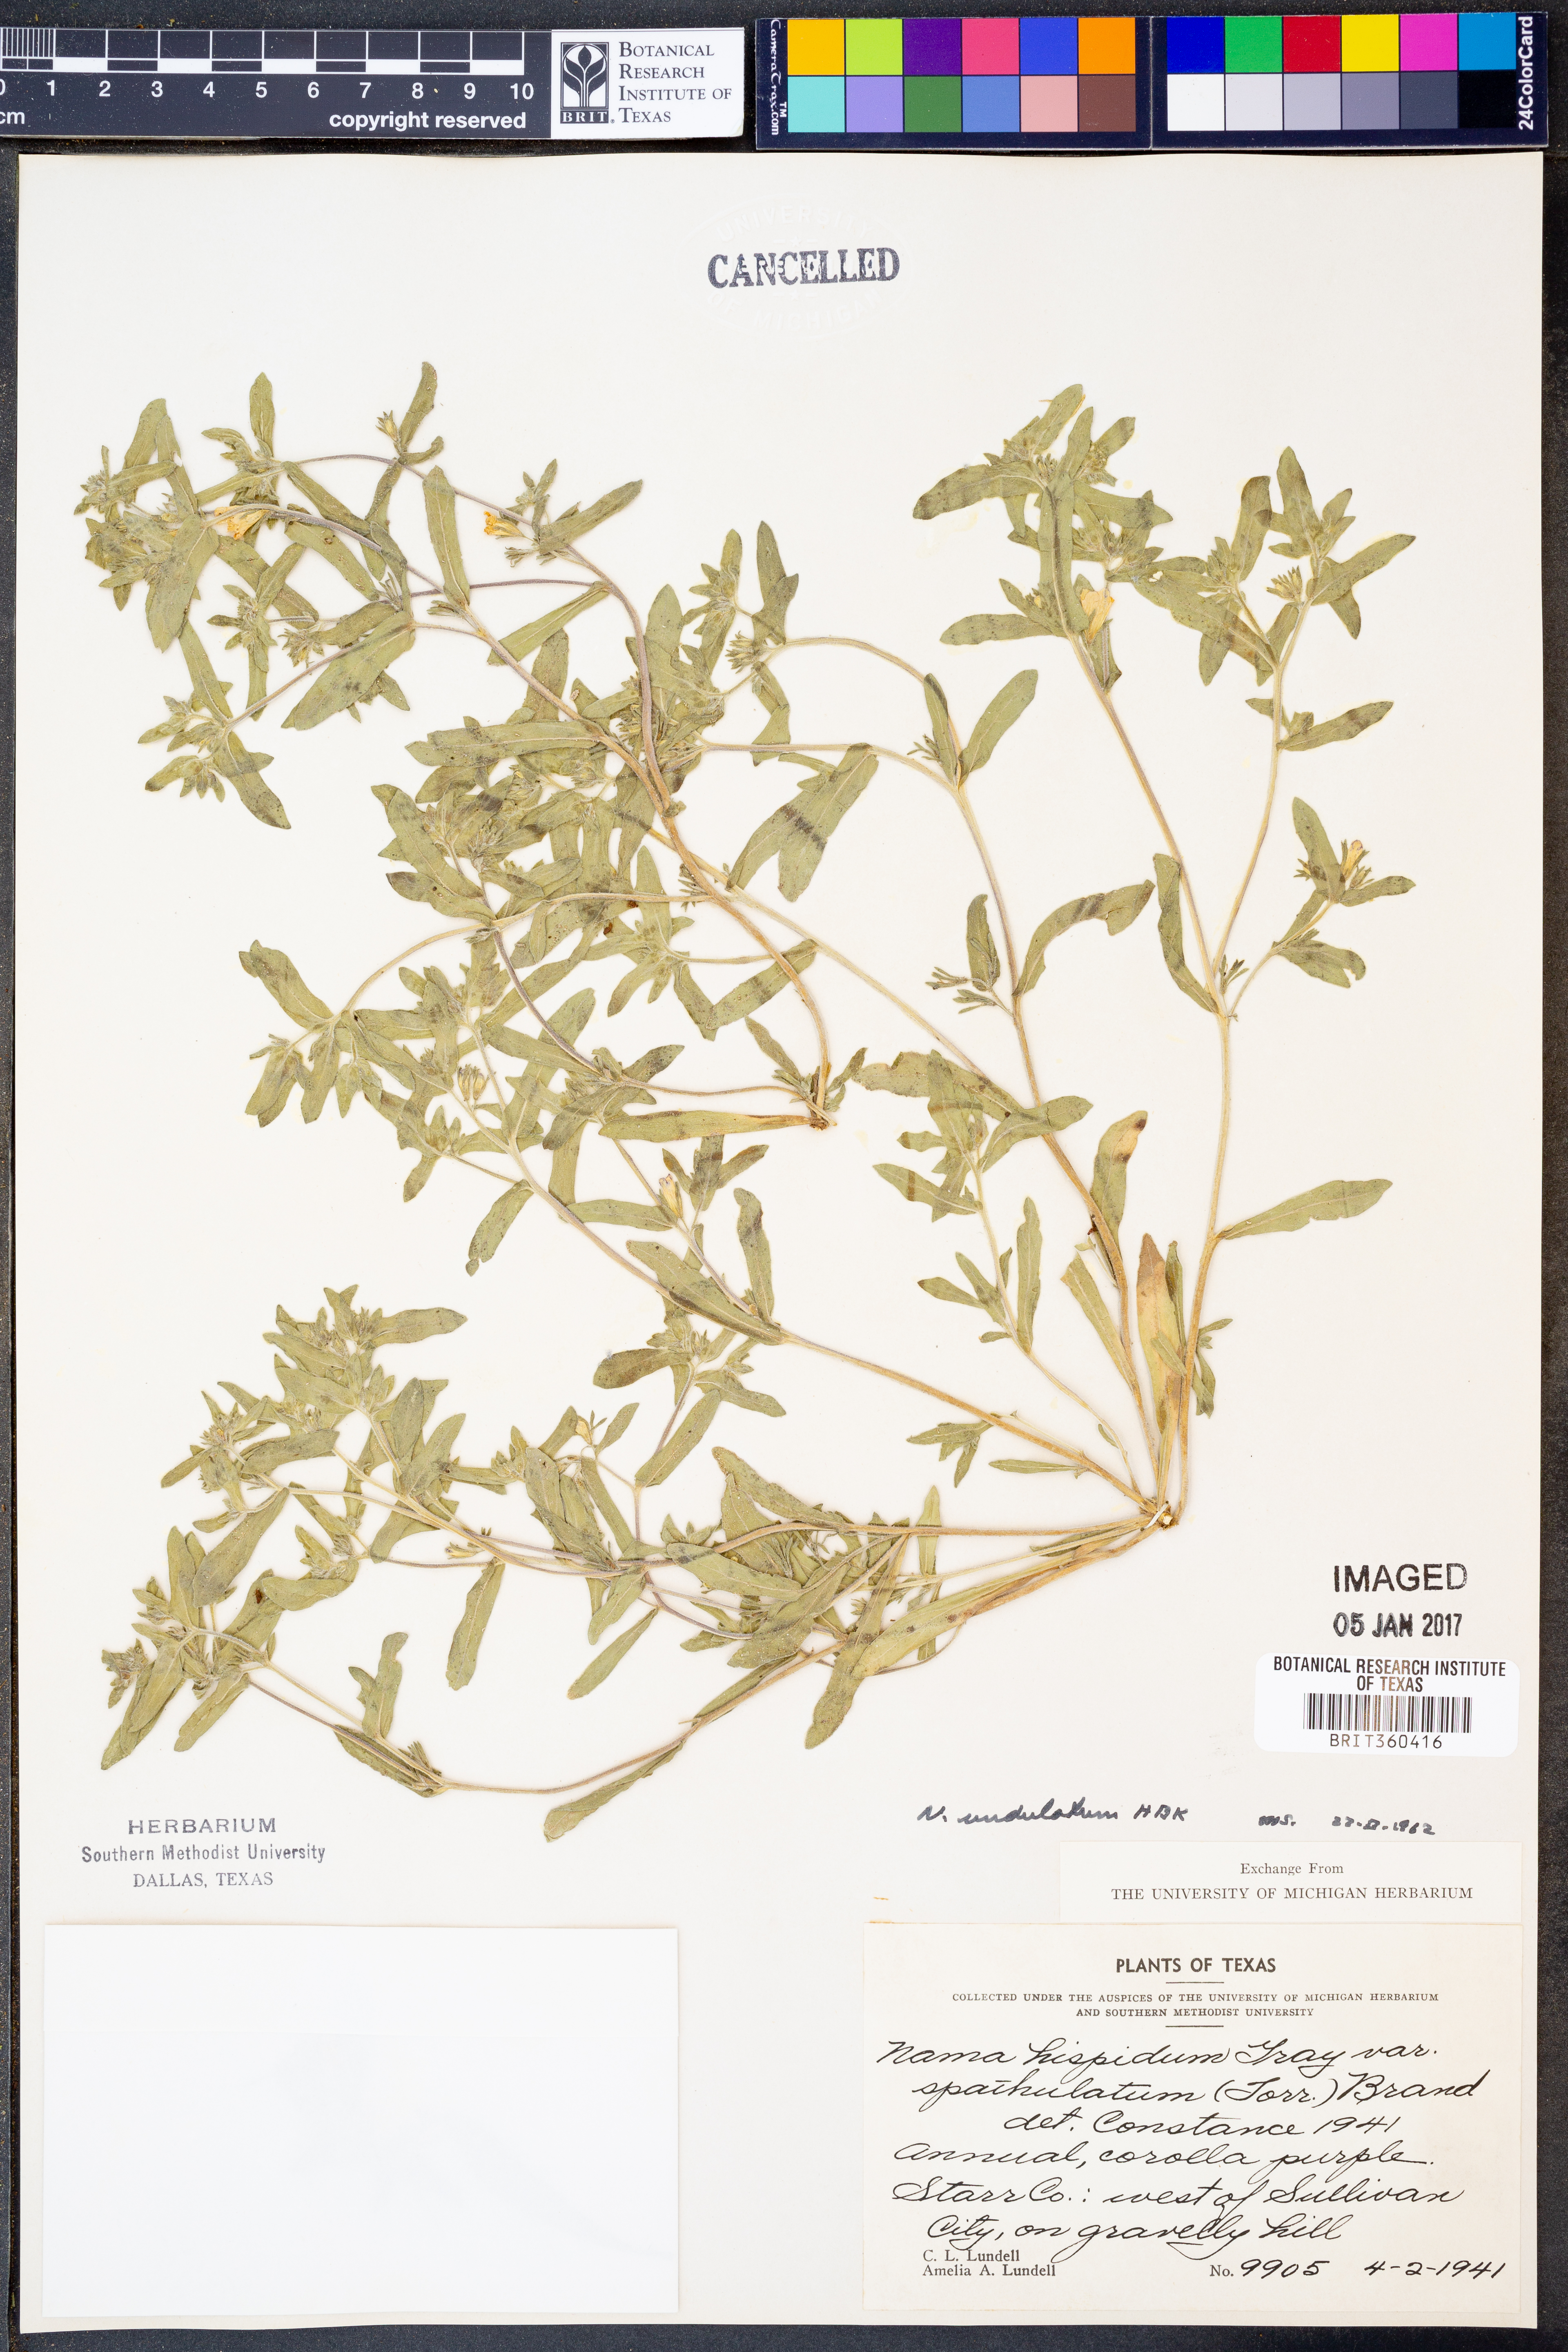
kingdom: Plantae
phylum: Tracheophyta
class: Magnoliopsida
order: Boraginales
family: Namaceae
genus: Nama
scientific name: Nama undulata
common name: Whitewhisker fiddleleaf
